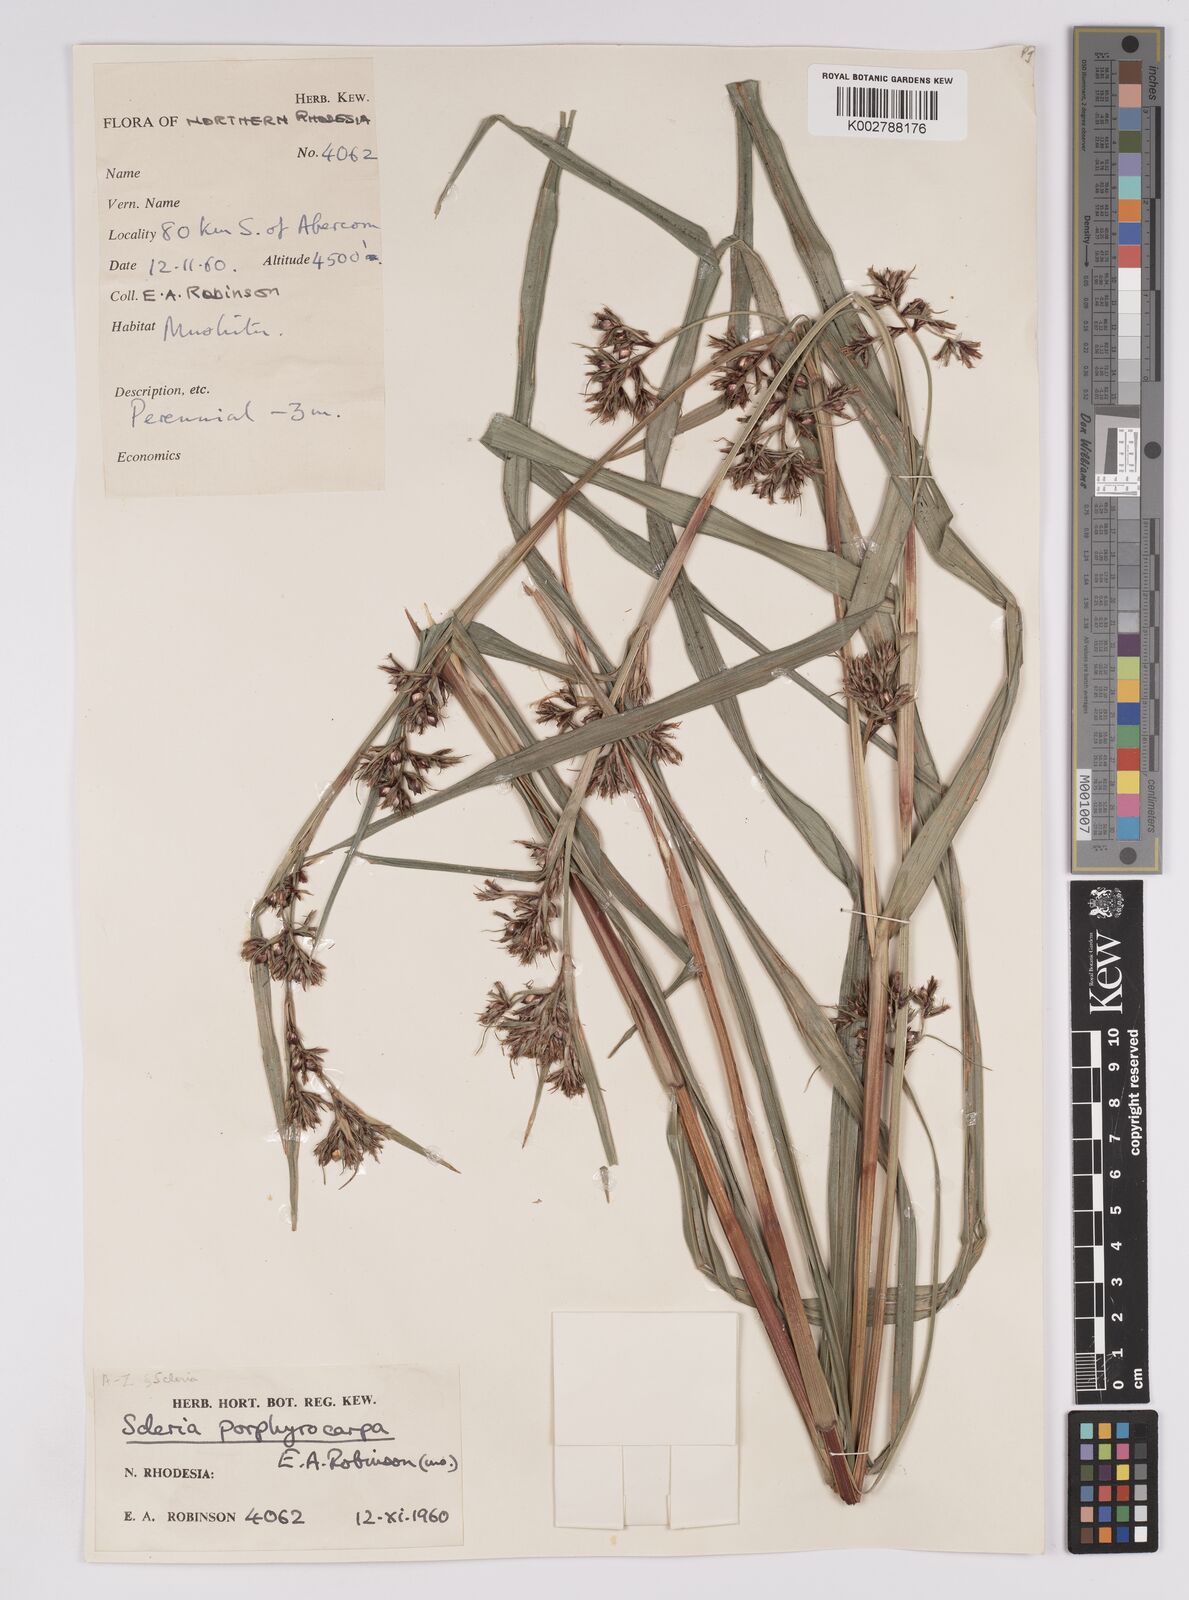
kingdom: Plantae
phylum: Tracheophyta
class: Liliopsida
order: Poales
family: Cyperaceae
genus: Scleria
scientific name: Scleria porphyrocarpa
